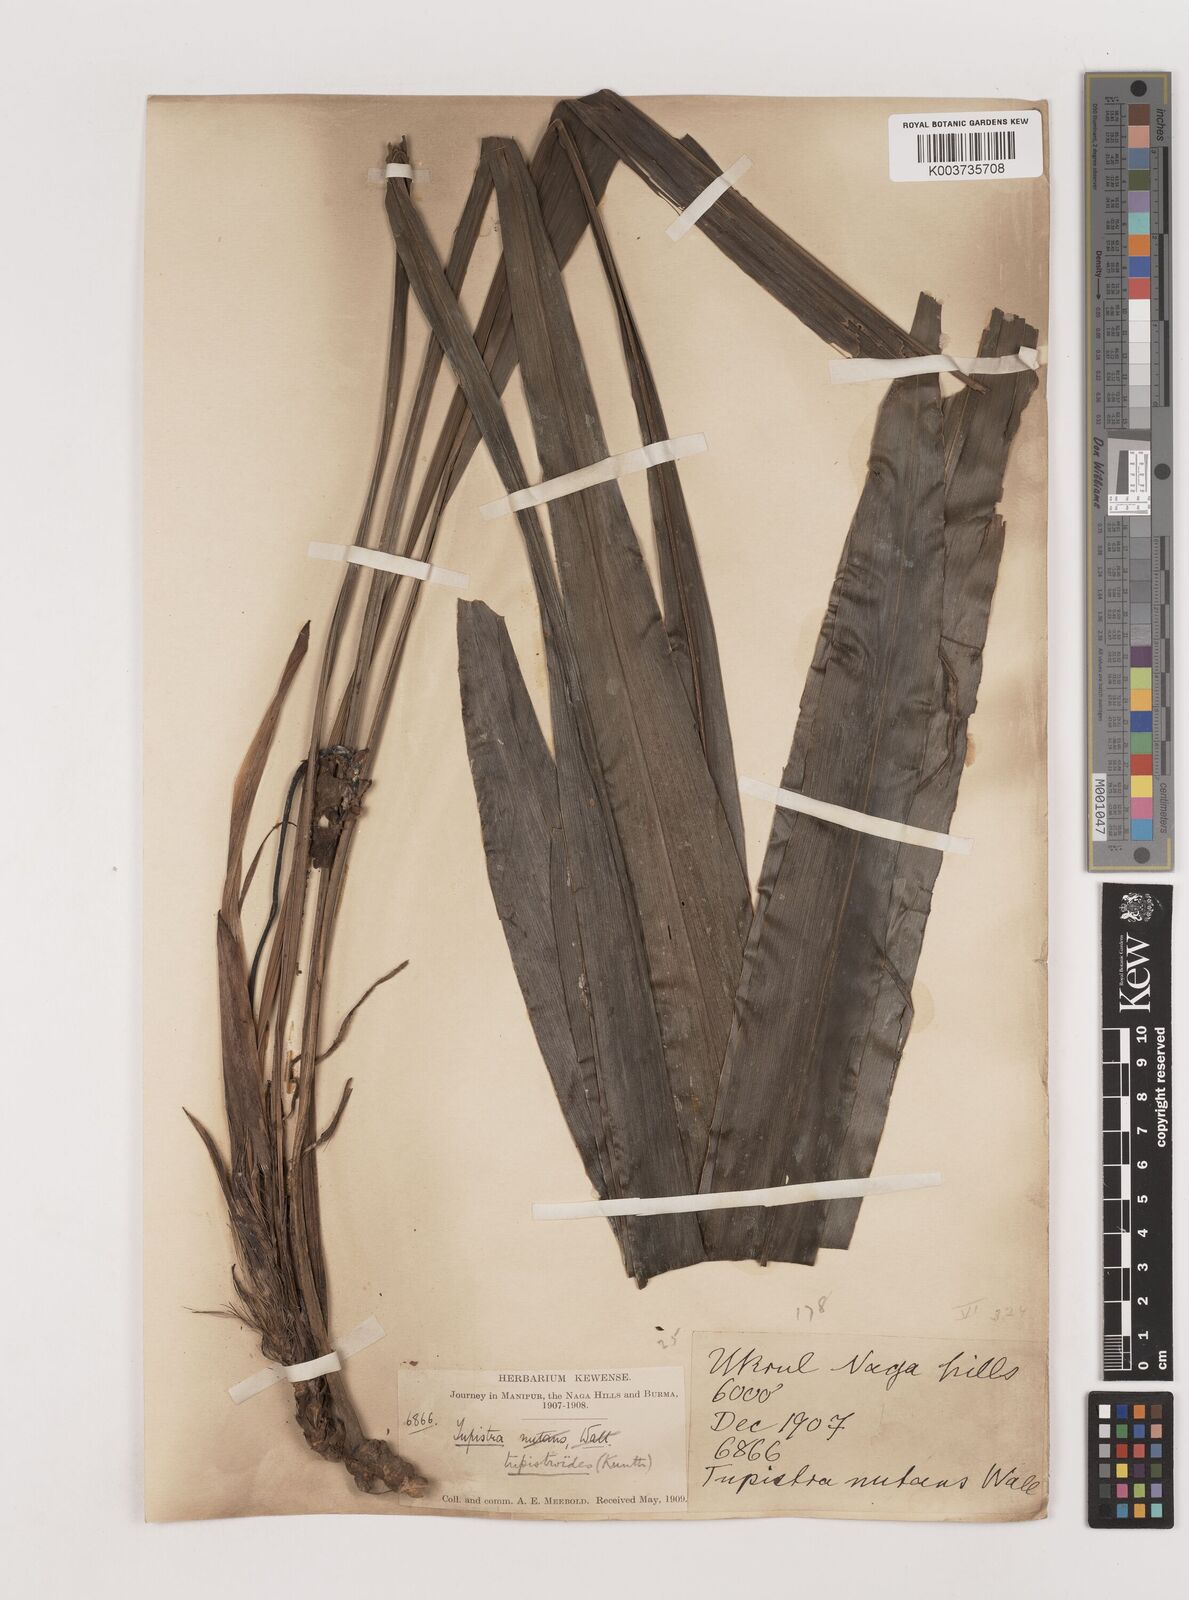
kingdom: Plantae
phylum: Tracheophyta
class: Liliopsida
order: Asparagales
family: Asparagaceae
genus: Tupistra
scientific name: Tupistra tupistroides
